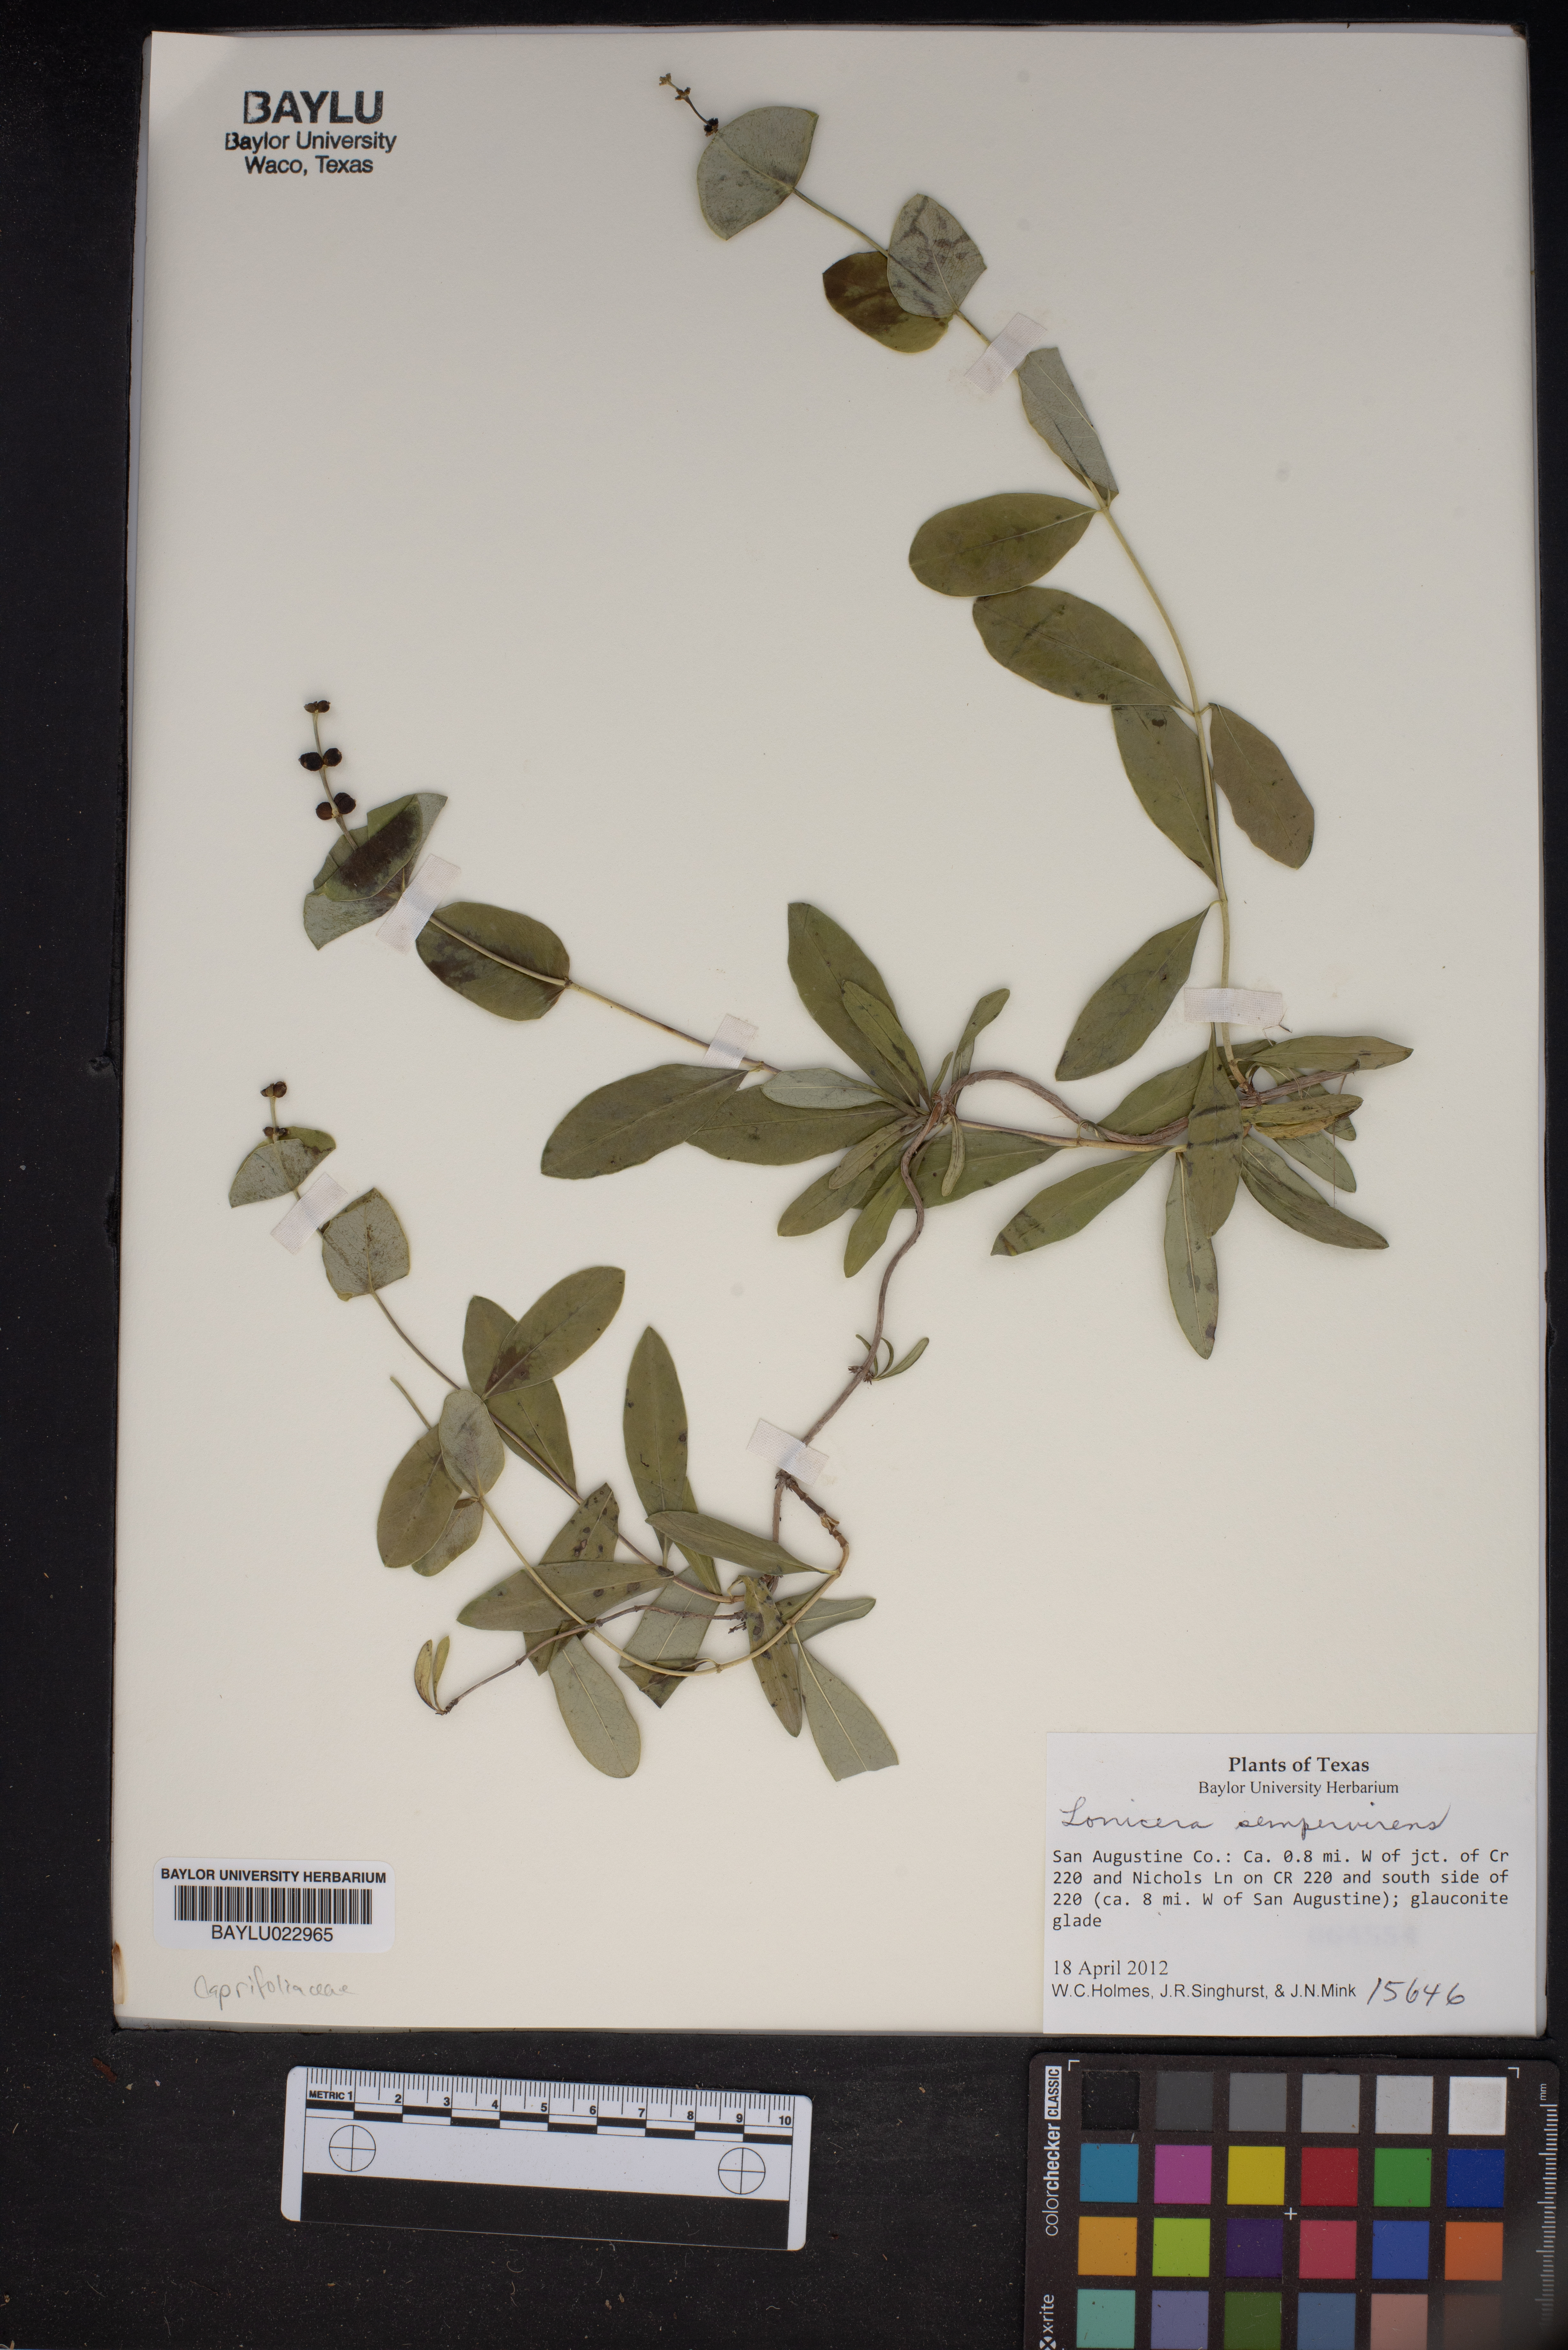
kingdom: Plantae
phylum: Tracheophyta
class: Magnoliopsida
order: Dipsacales
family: Caprifoliaceae
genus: Lonicera
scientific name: Lonicera sempervirens
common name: Coral honeysuckle
